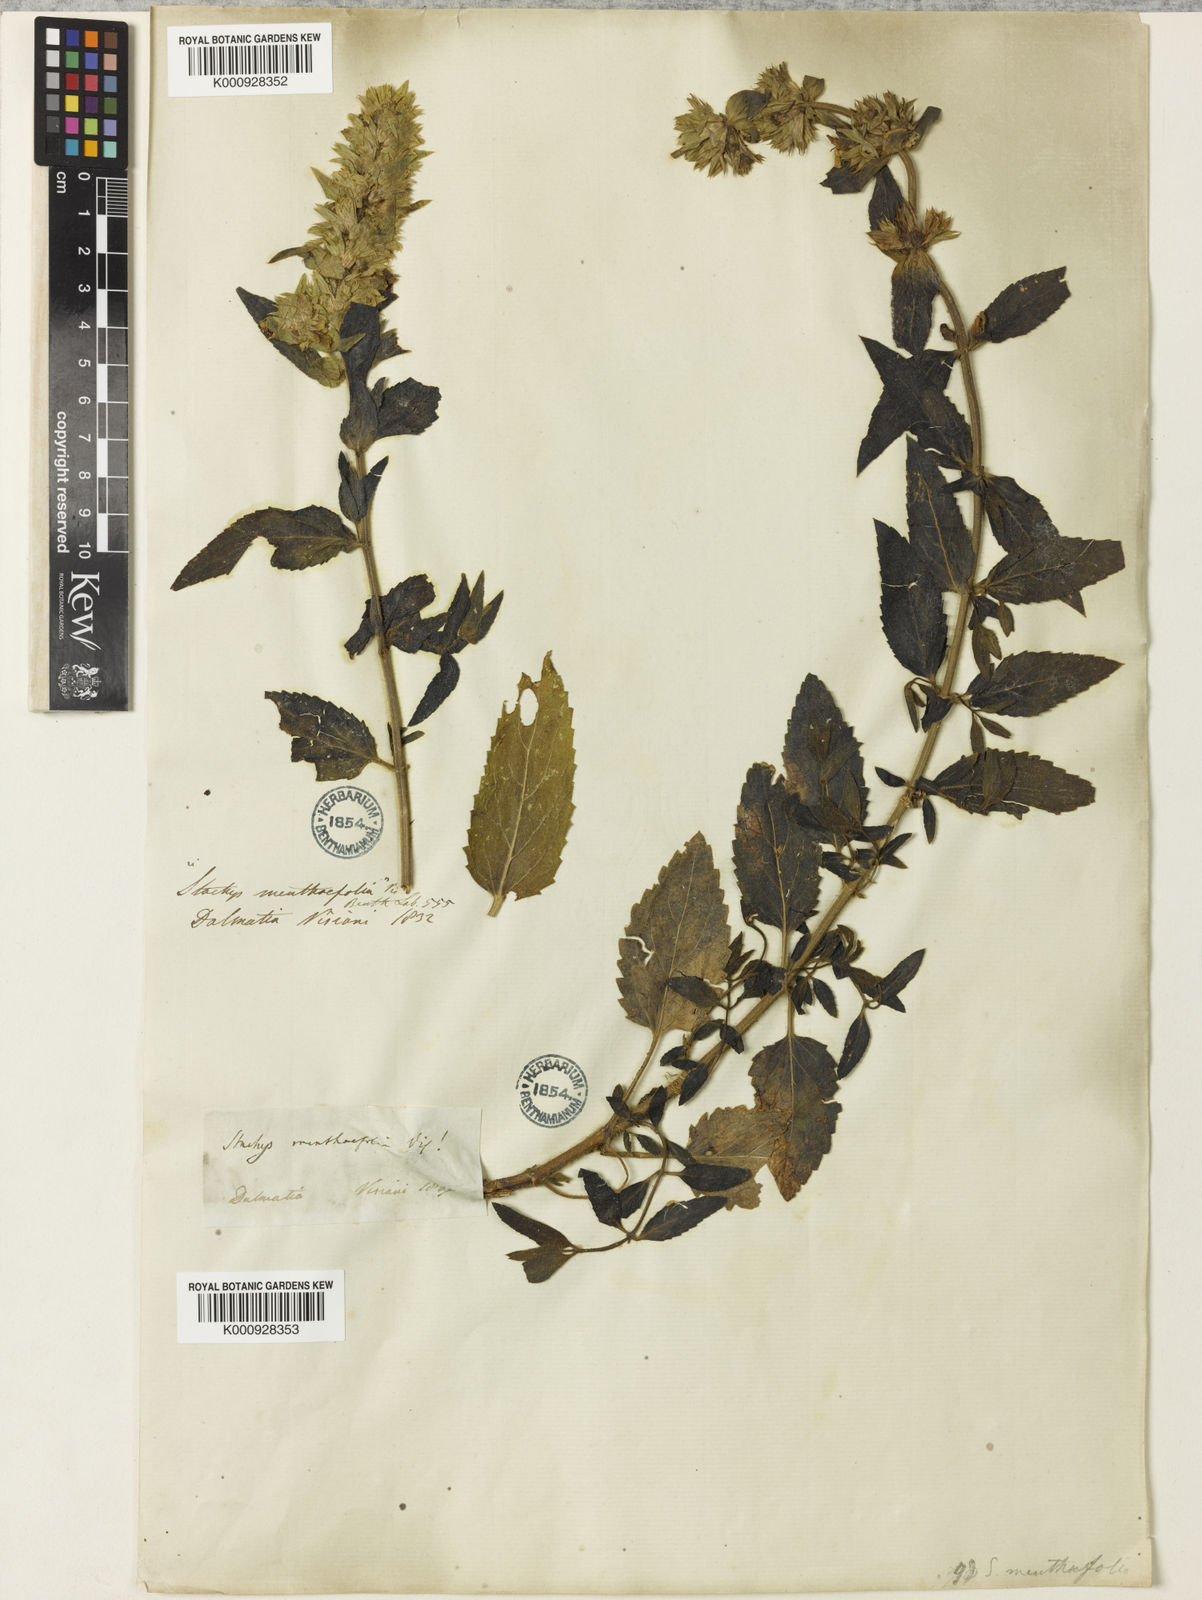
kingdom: Plantae
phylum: Tracheophyta
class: Magnoliopsida
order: Lamiales
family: Lamiaceae
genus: Stachys
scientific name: Stachys menthifolia
